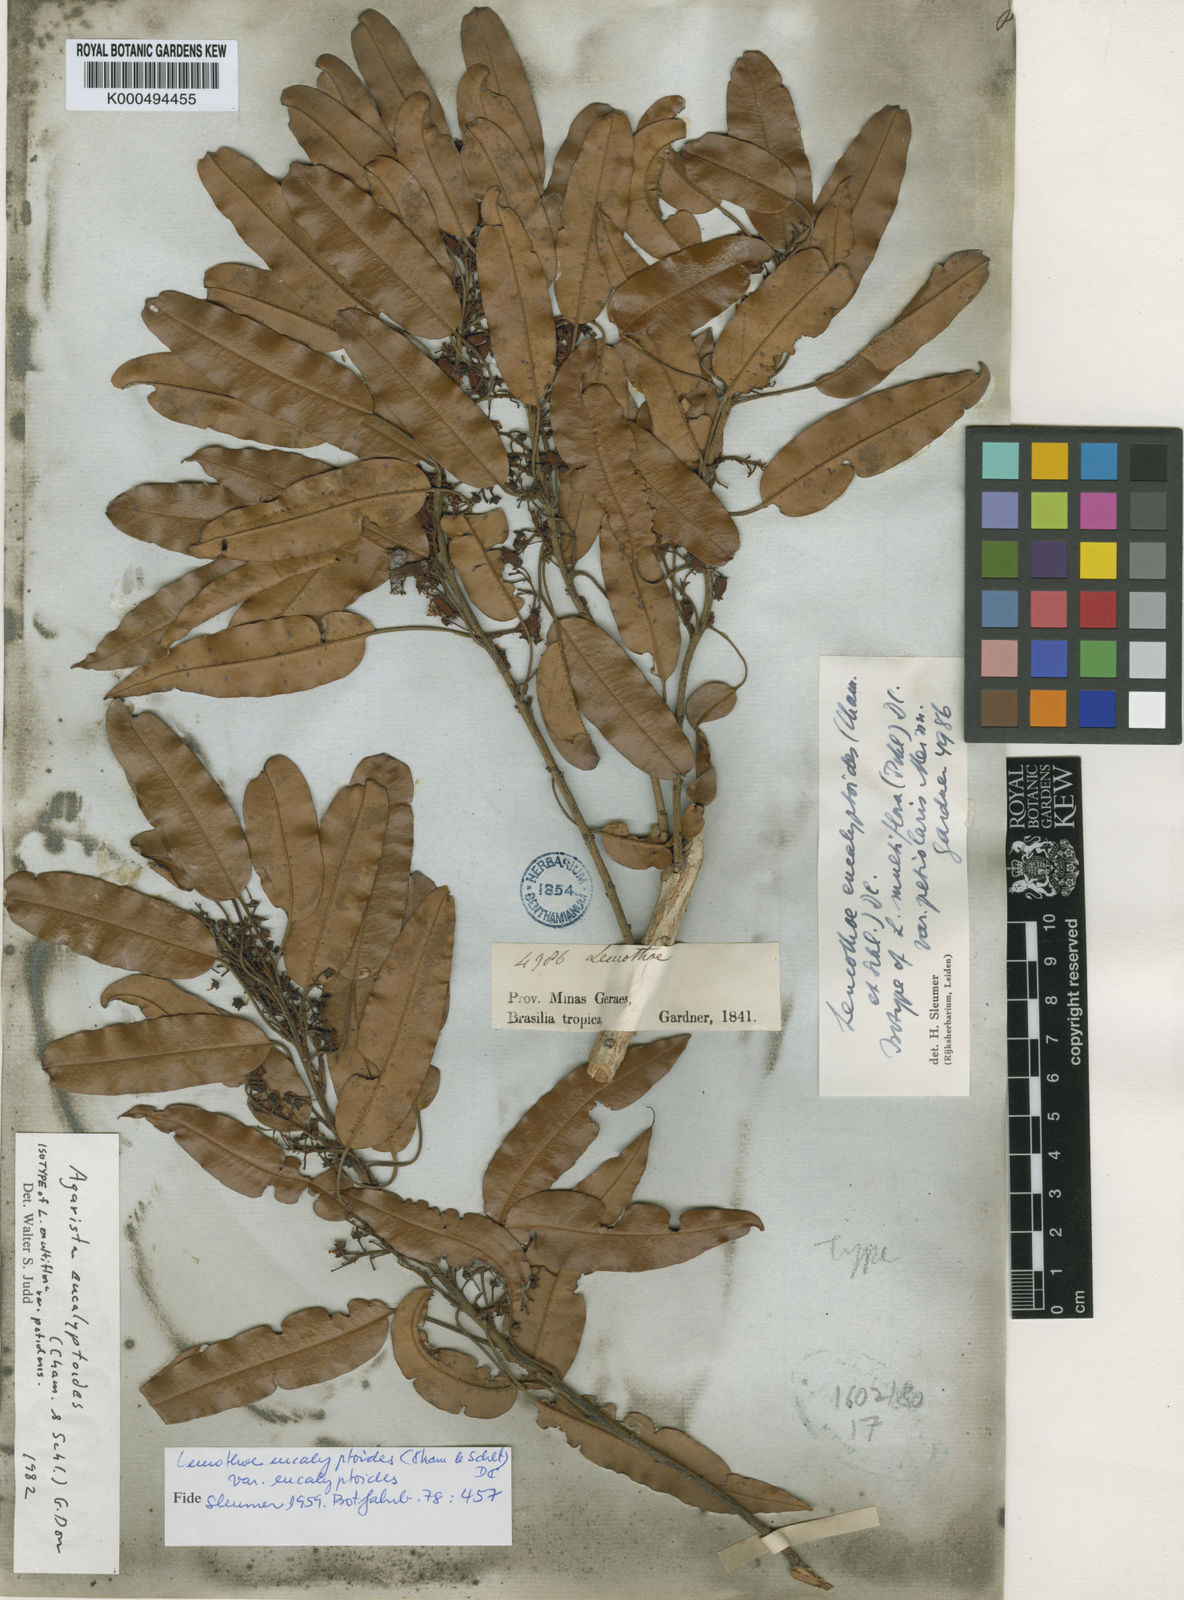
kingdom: Plantae
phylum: Tracheophyta
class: Magnoliopsida
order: Ericales
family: Ericaceae
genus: Agarista
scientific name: Agarista eucalyptoides
